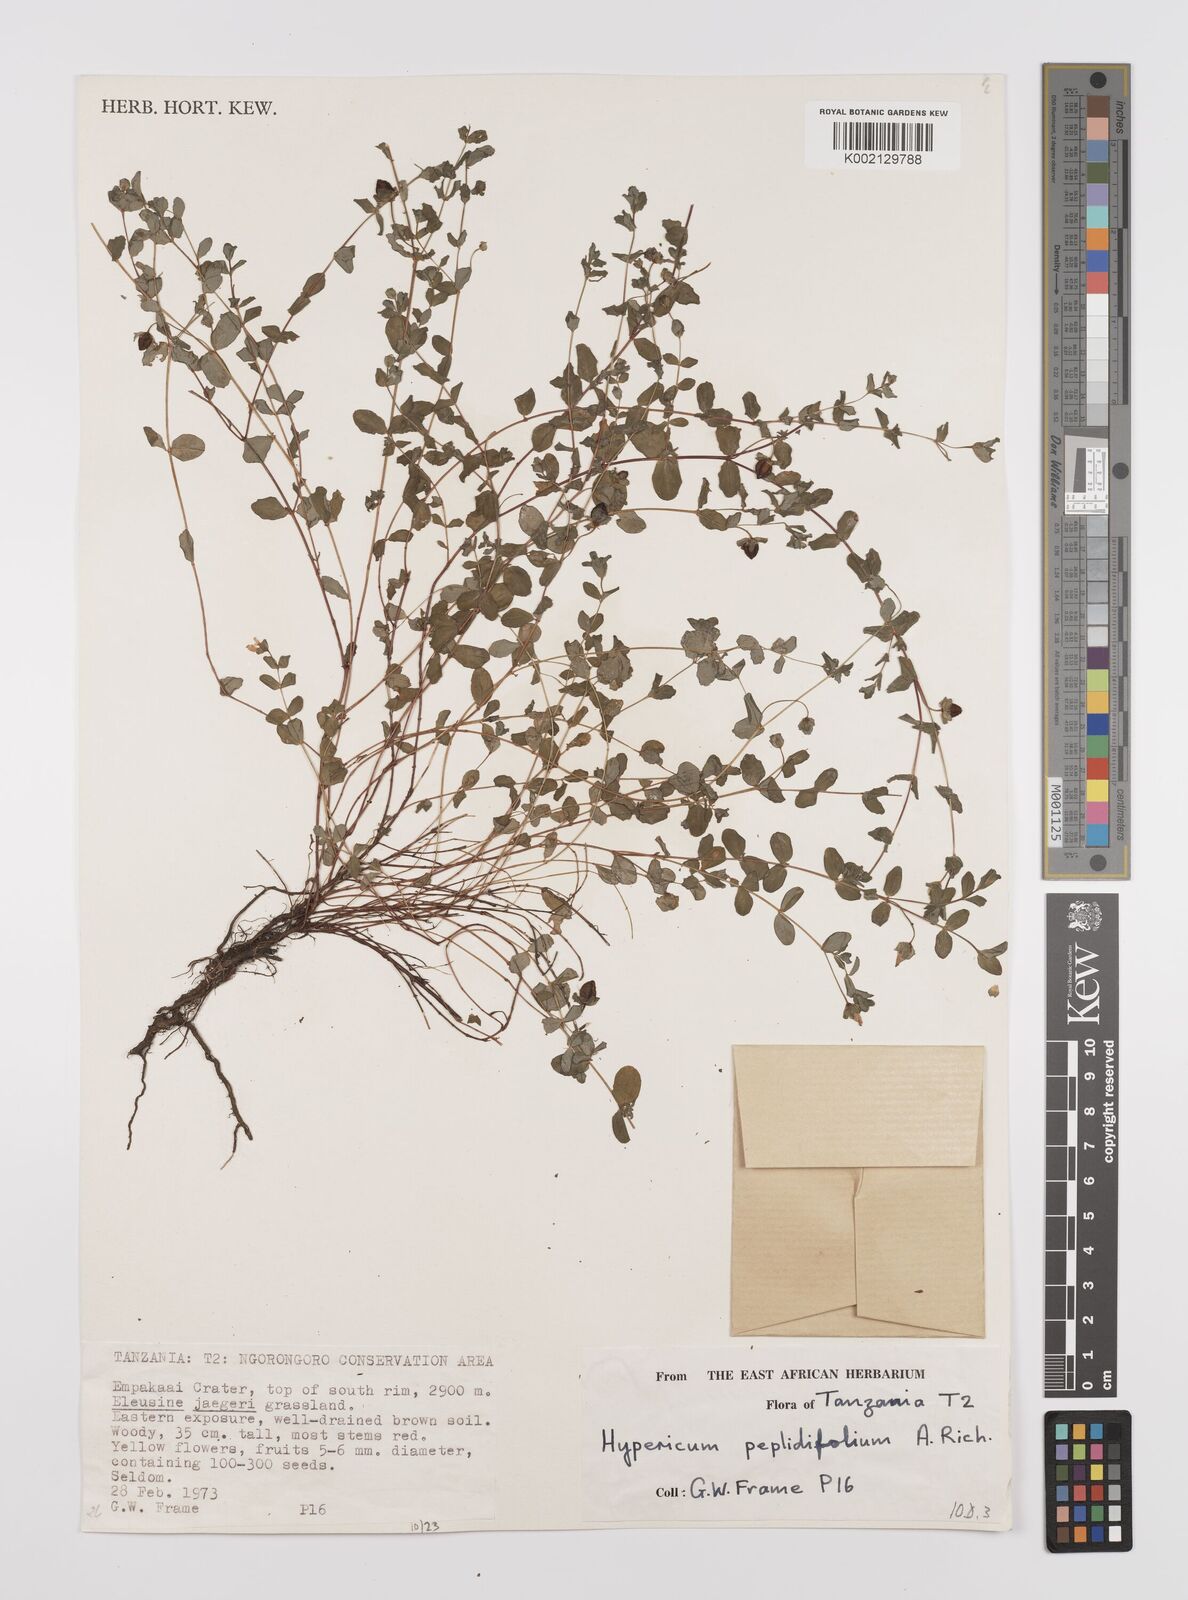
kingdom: Plantae
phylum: Tracheophyta
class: Magnoliopsida
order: Malpighiales
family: Hypericaceae
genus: Hypericum
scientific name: Hypericum peplidifolium
